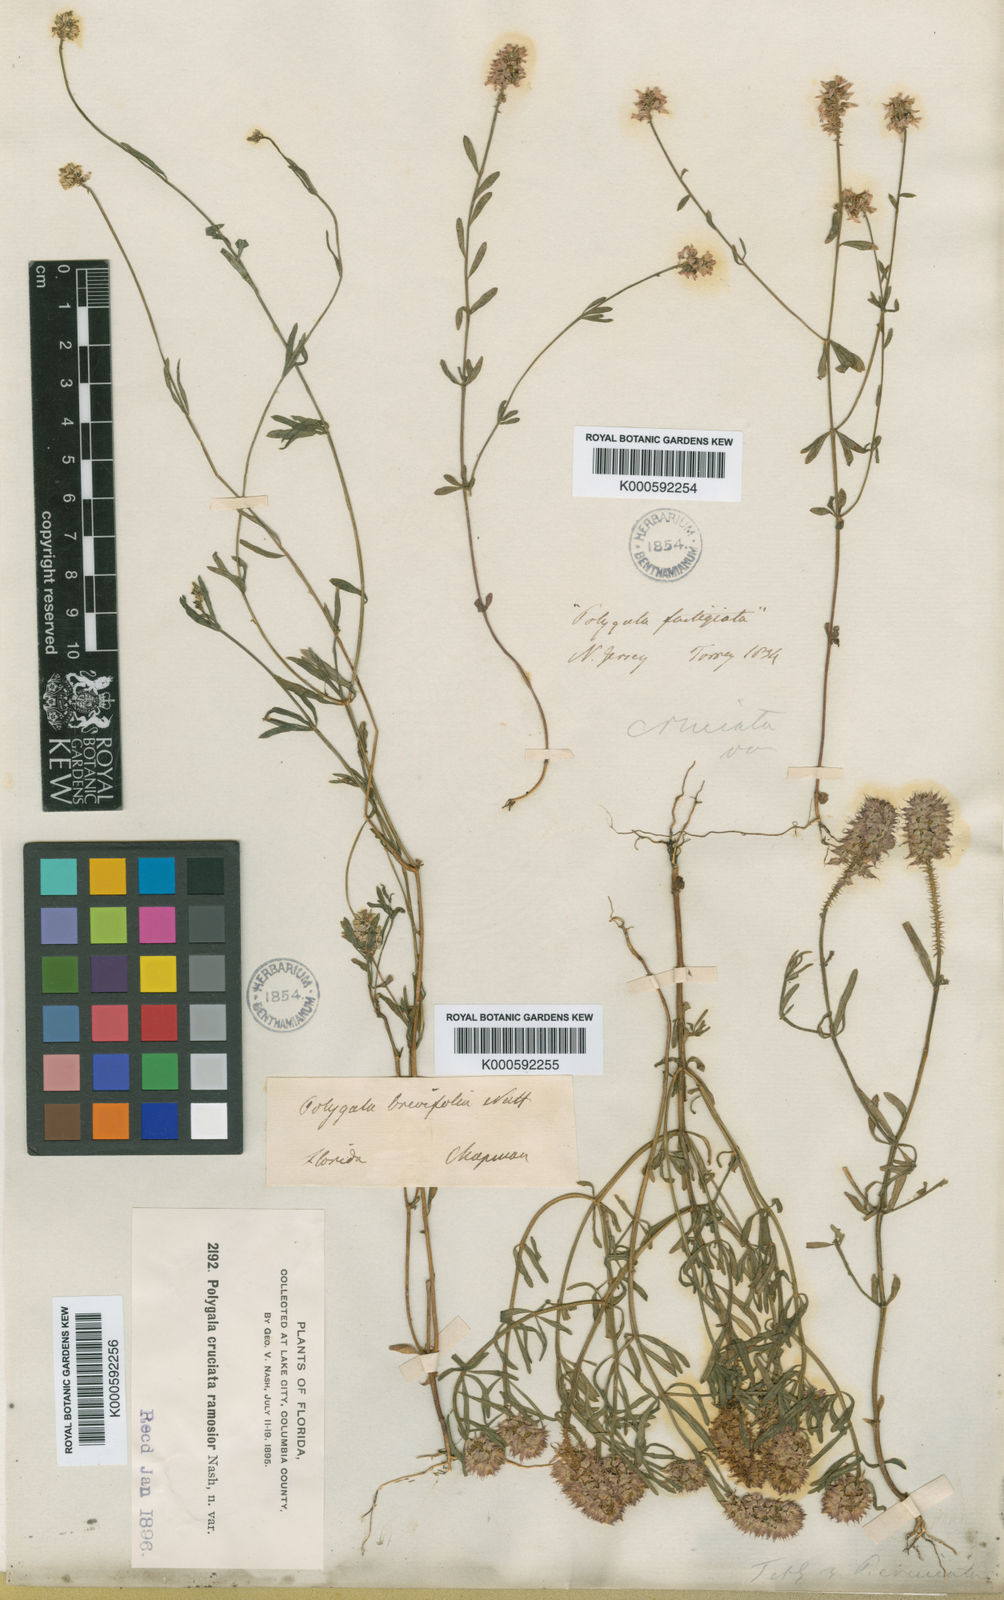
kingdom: Plantae
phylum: Tracheophyta
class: Magnoliopsida
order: Fabales
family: Polygalaceae
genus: Polygala
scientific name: Polygala cruciata
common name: Drumheads
